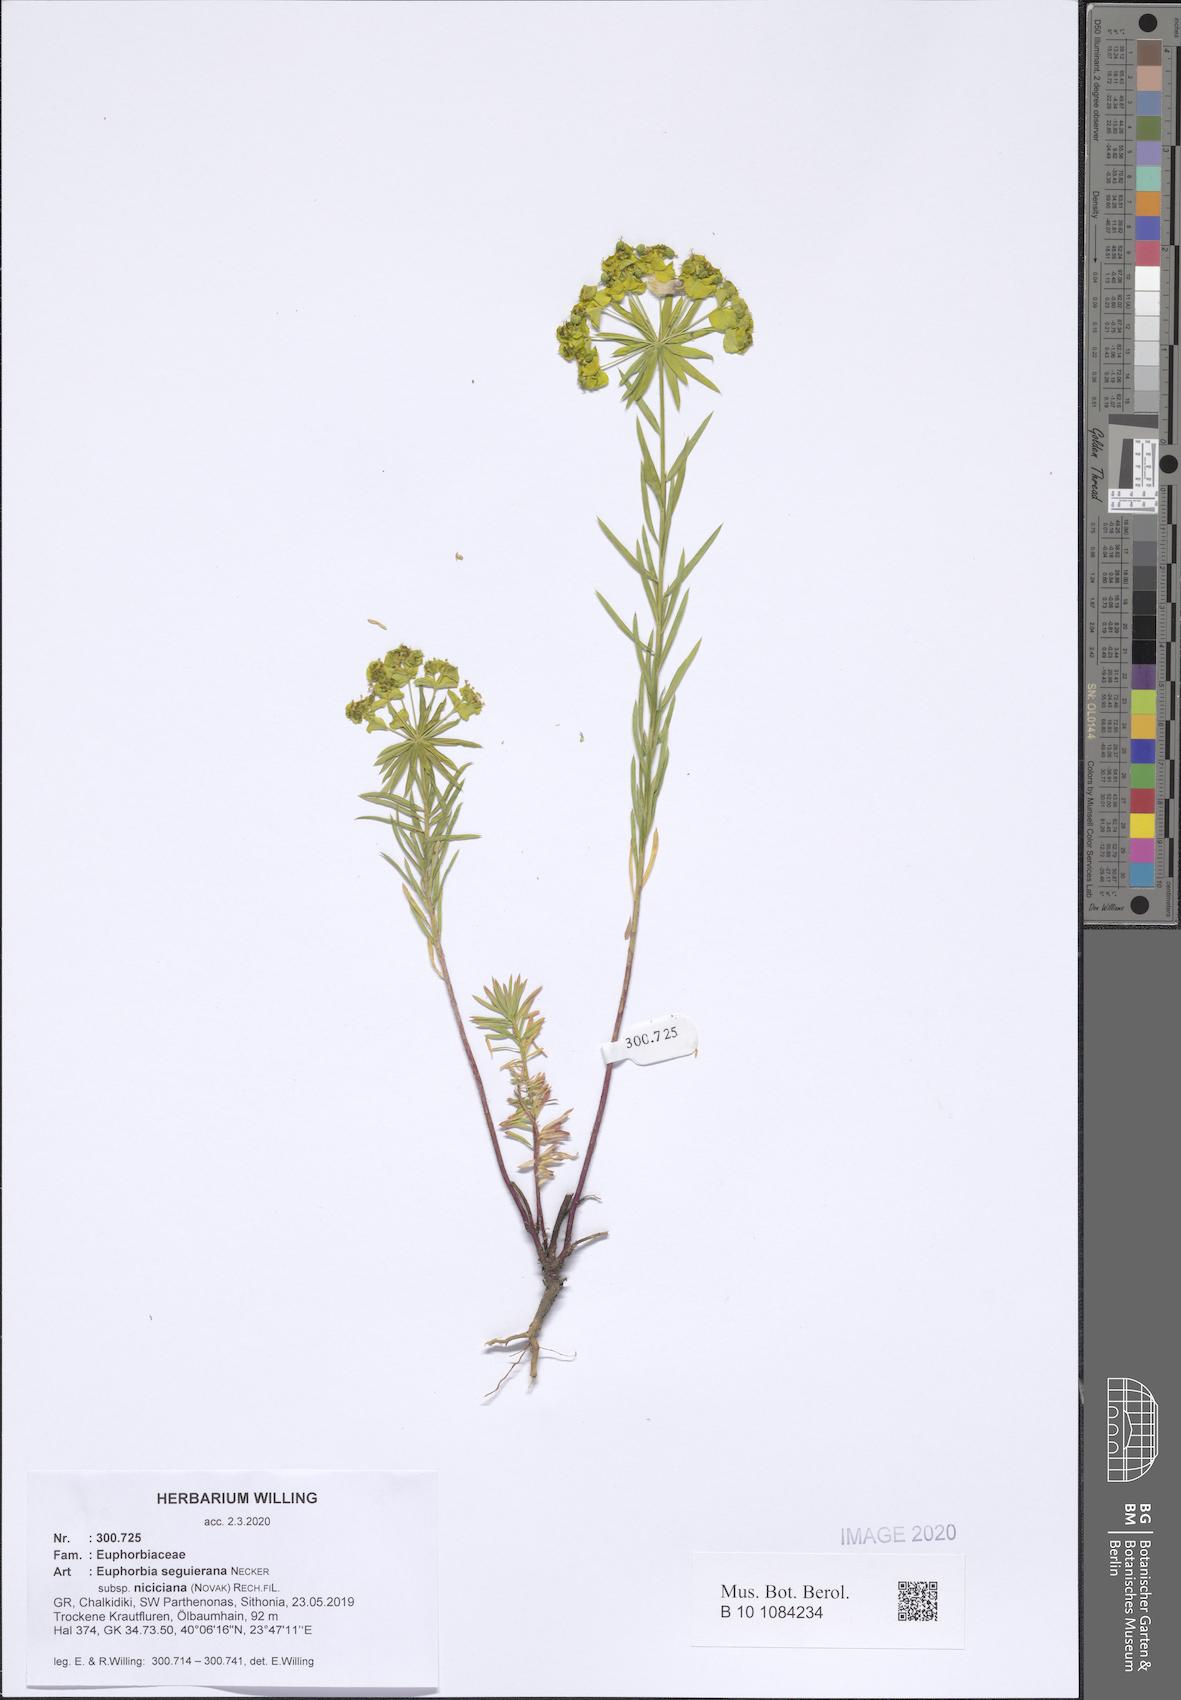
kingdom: Plantae
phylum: Tracheophyta
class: Magnoliopsida
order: Malpighiales
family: Euphorbiaceae
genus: Euphorbia
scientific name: Euphorbia seguieriana
